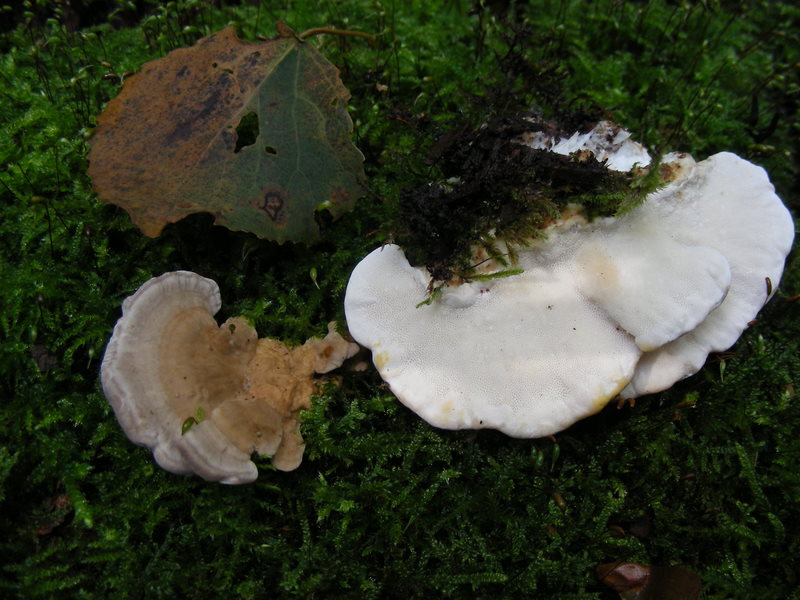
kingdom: Fungi
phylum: Basidiomycota
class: Agaricomycetes
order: Polyporales
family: Polyporaceae
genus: Trametes
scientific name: Trametes ochracea
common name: bæltet læderporesvamp
